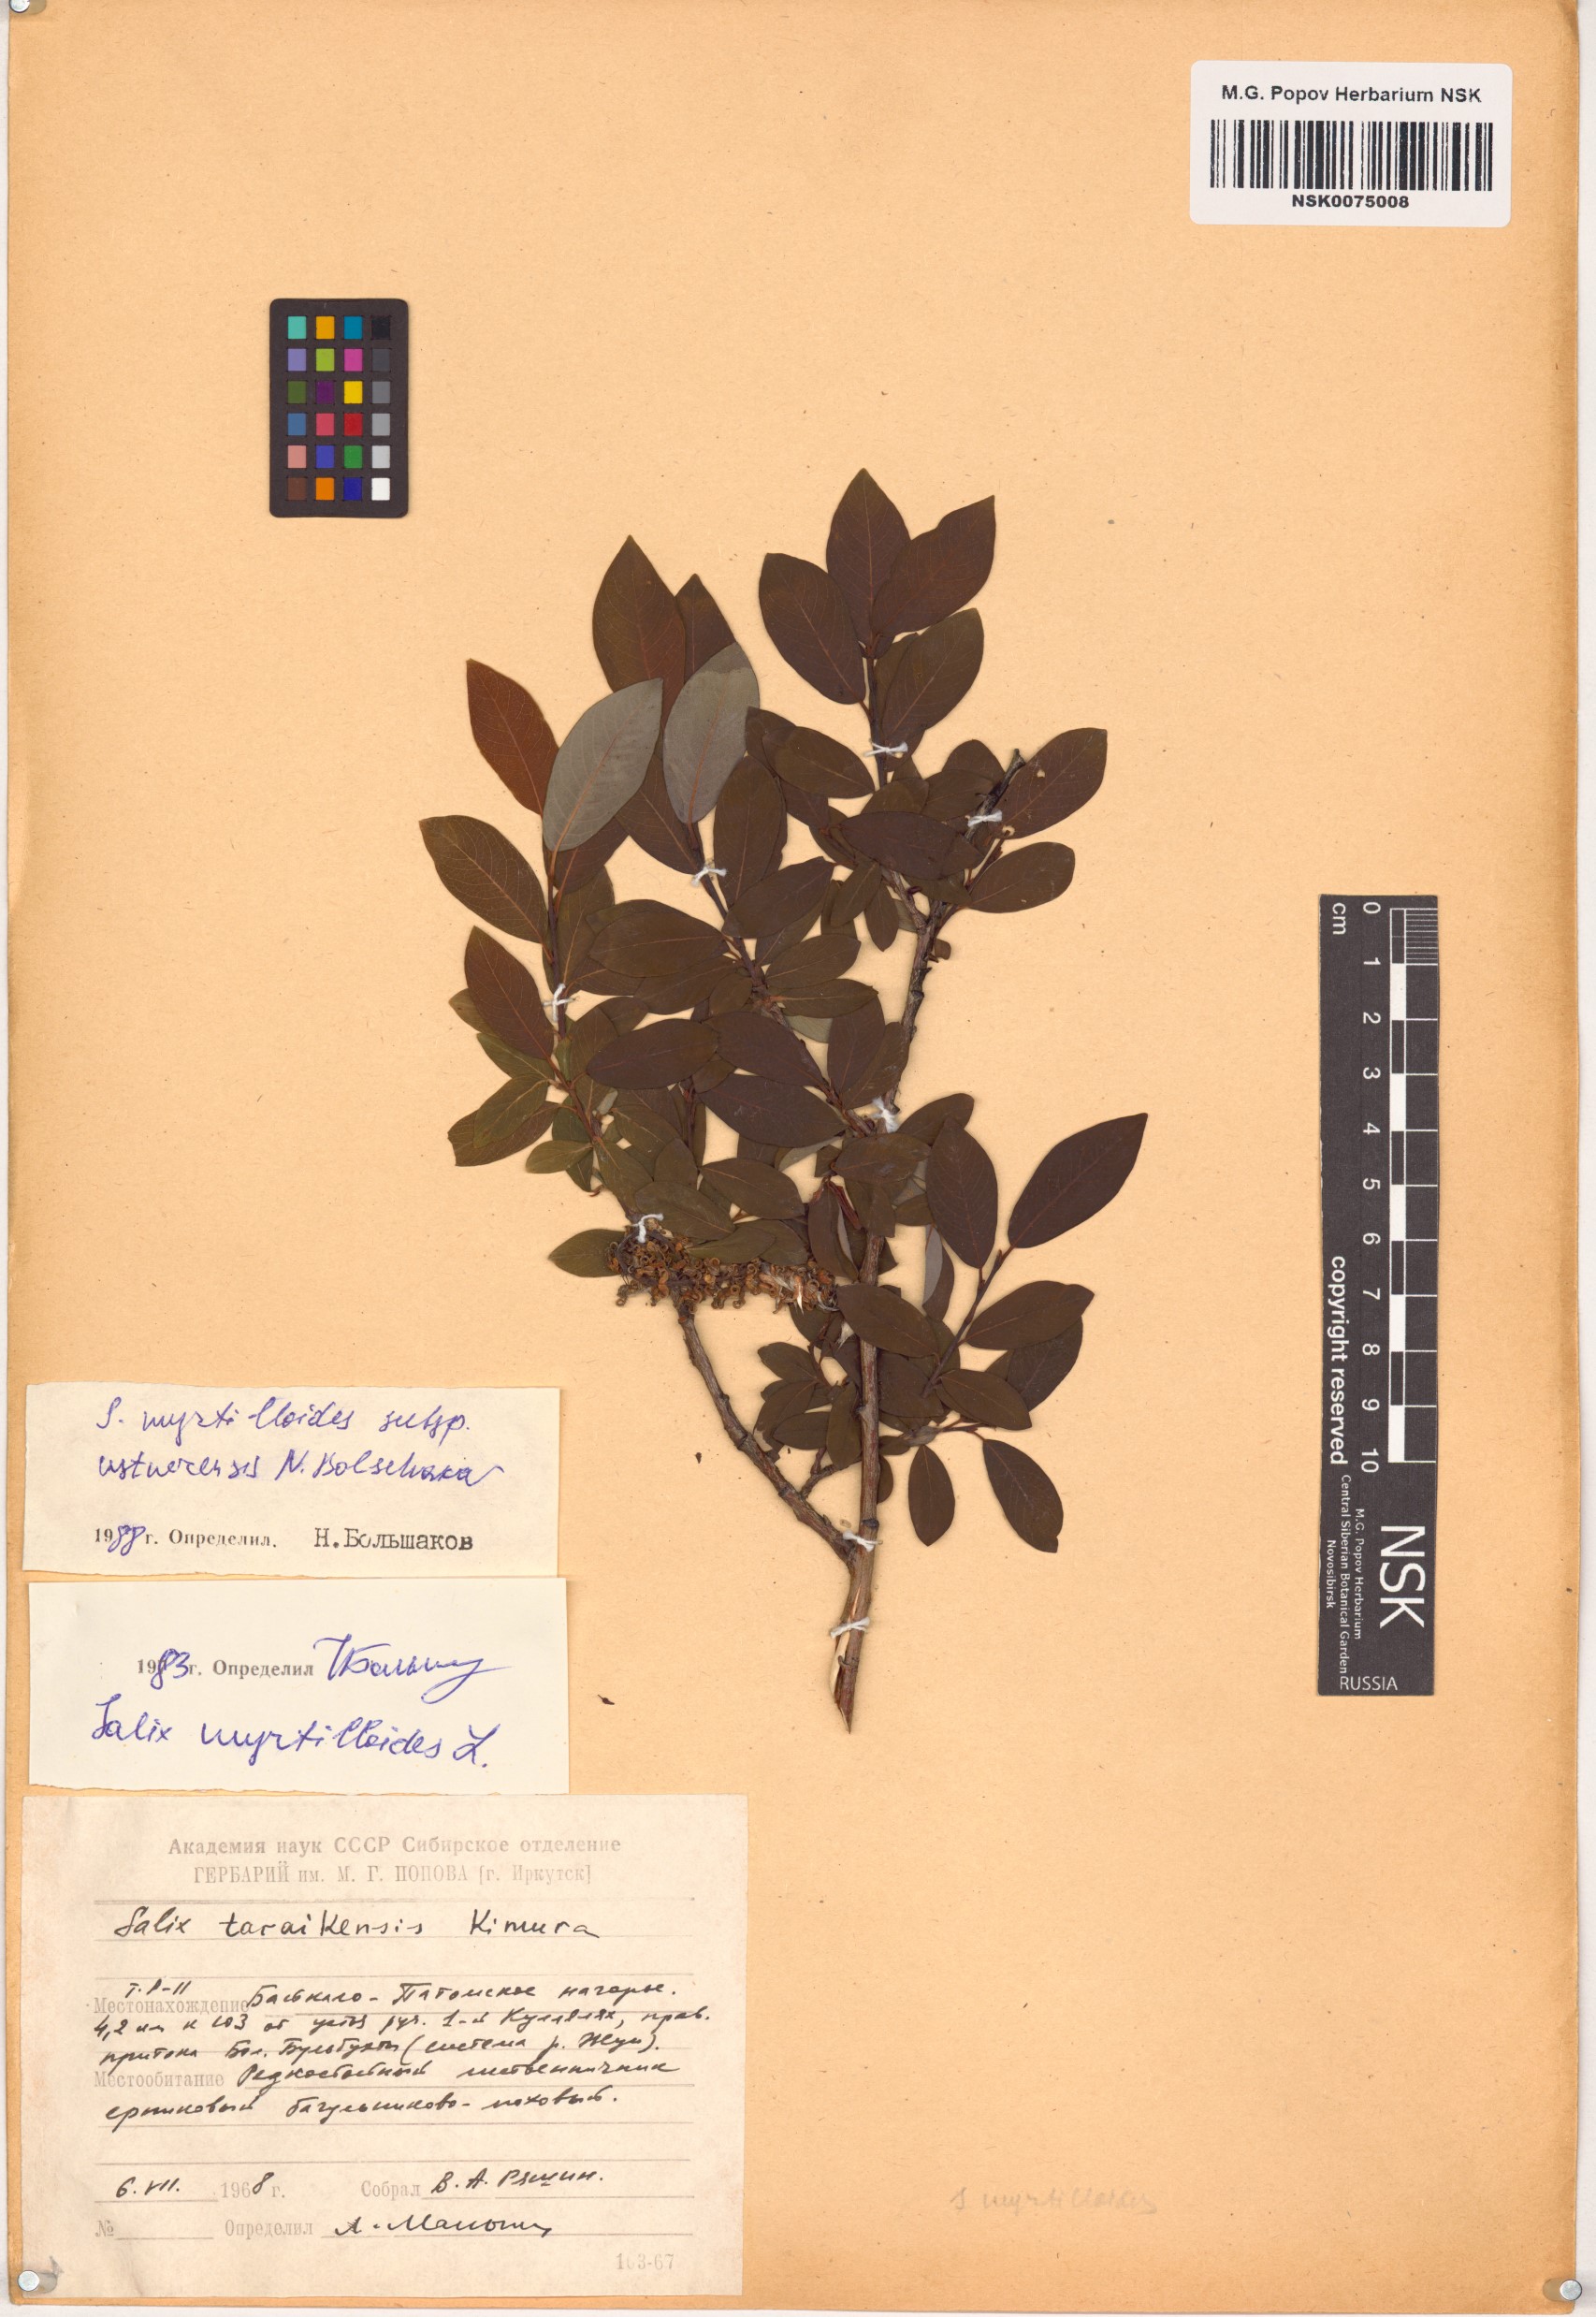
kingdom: Plantae
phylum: Tracheophyta
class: Magnoliopsida
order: Malpighiales
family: Salicaceae
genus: Salix
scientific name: Salix ustnerensis
